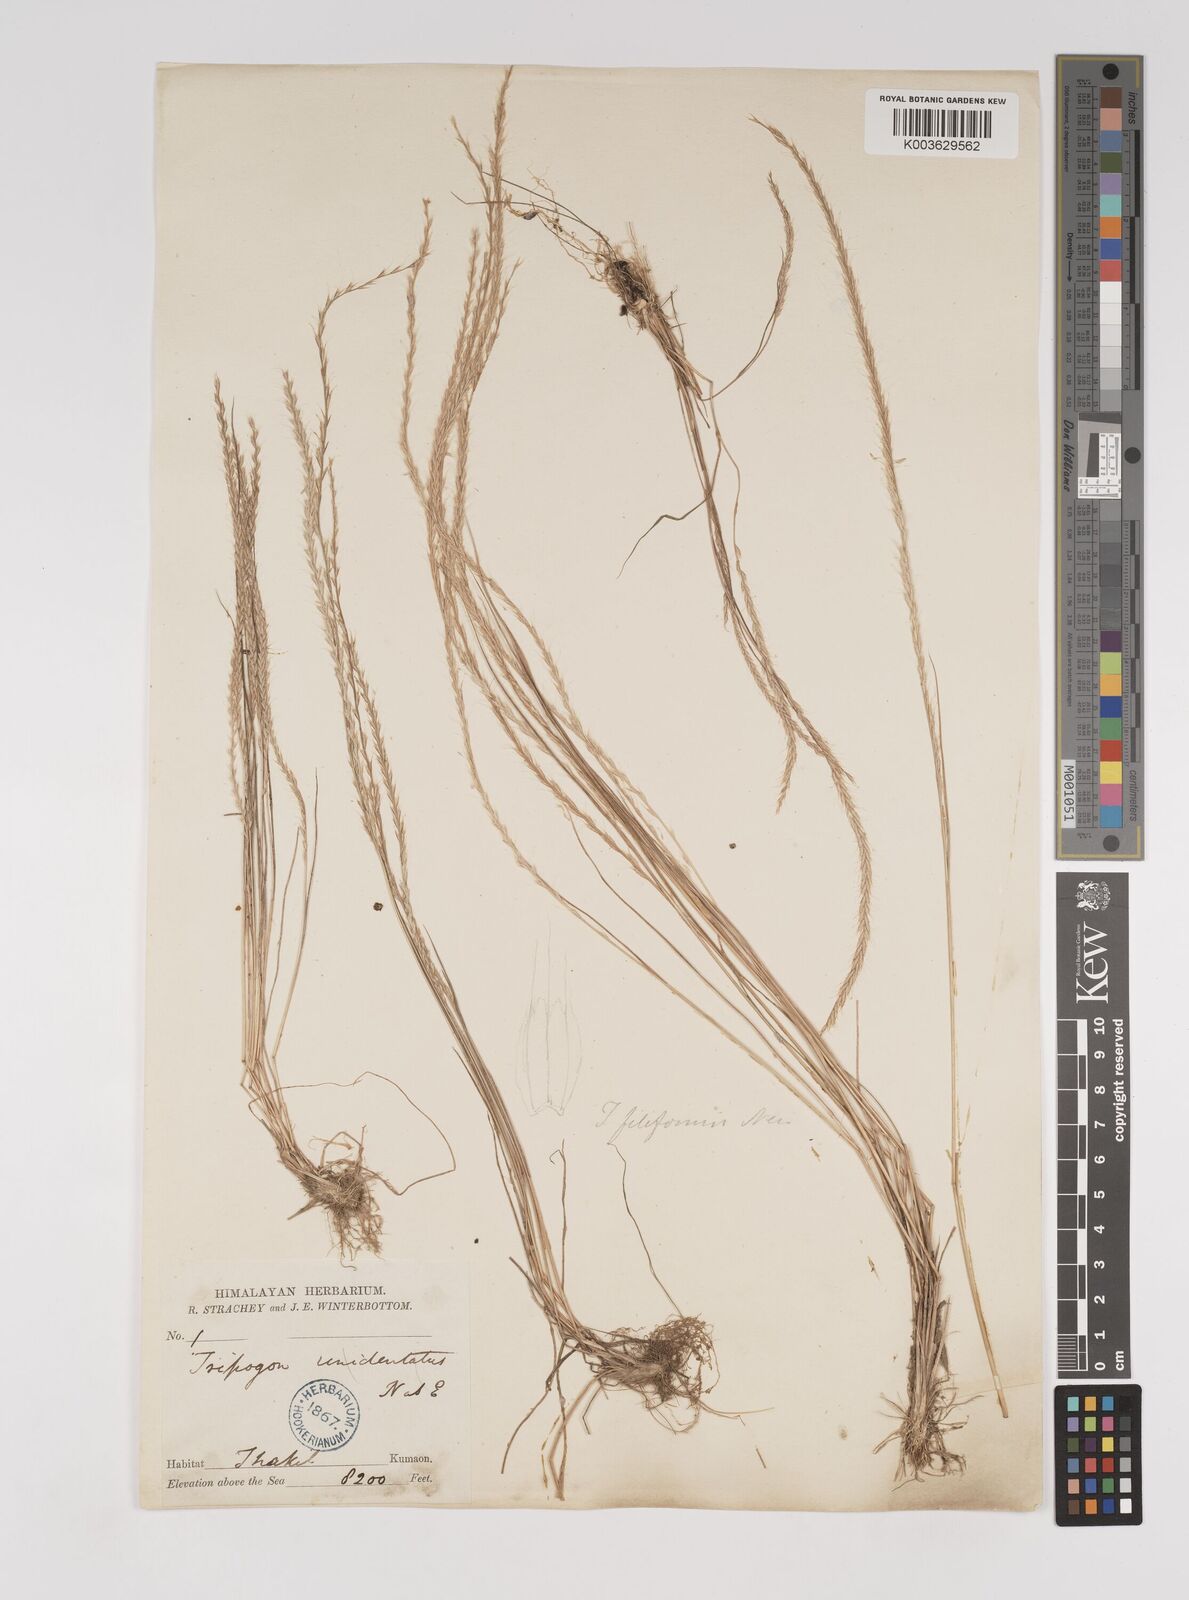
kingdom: Plantae
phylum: Tracheophyta
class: Liliopsida
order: Poales
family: Poaceae
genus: Tripogon
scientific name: Tripogon filiformis
